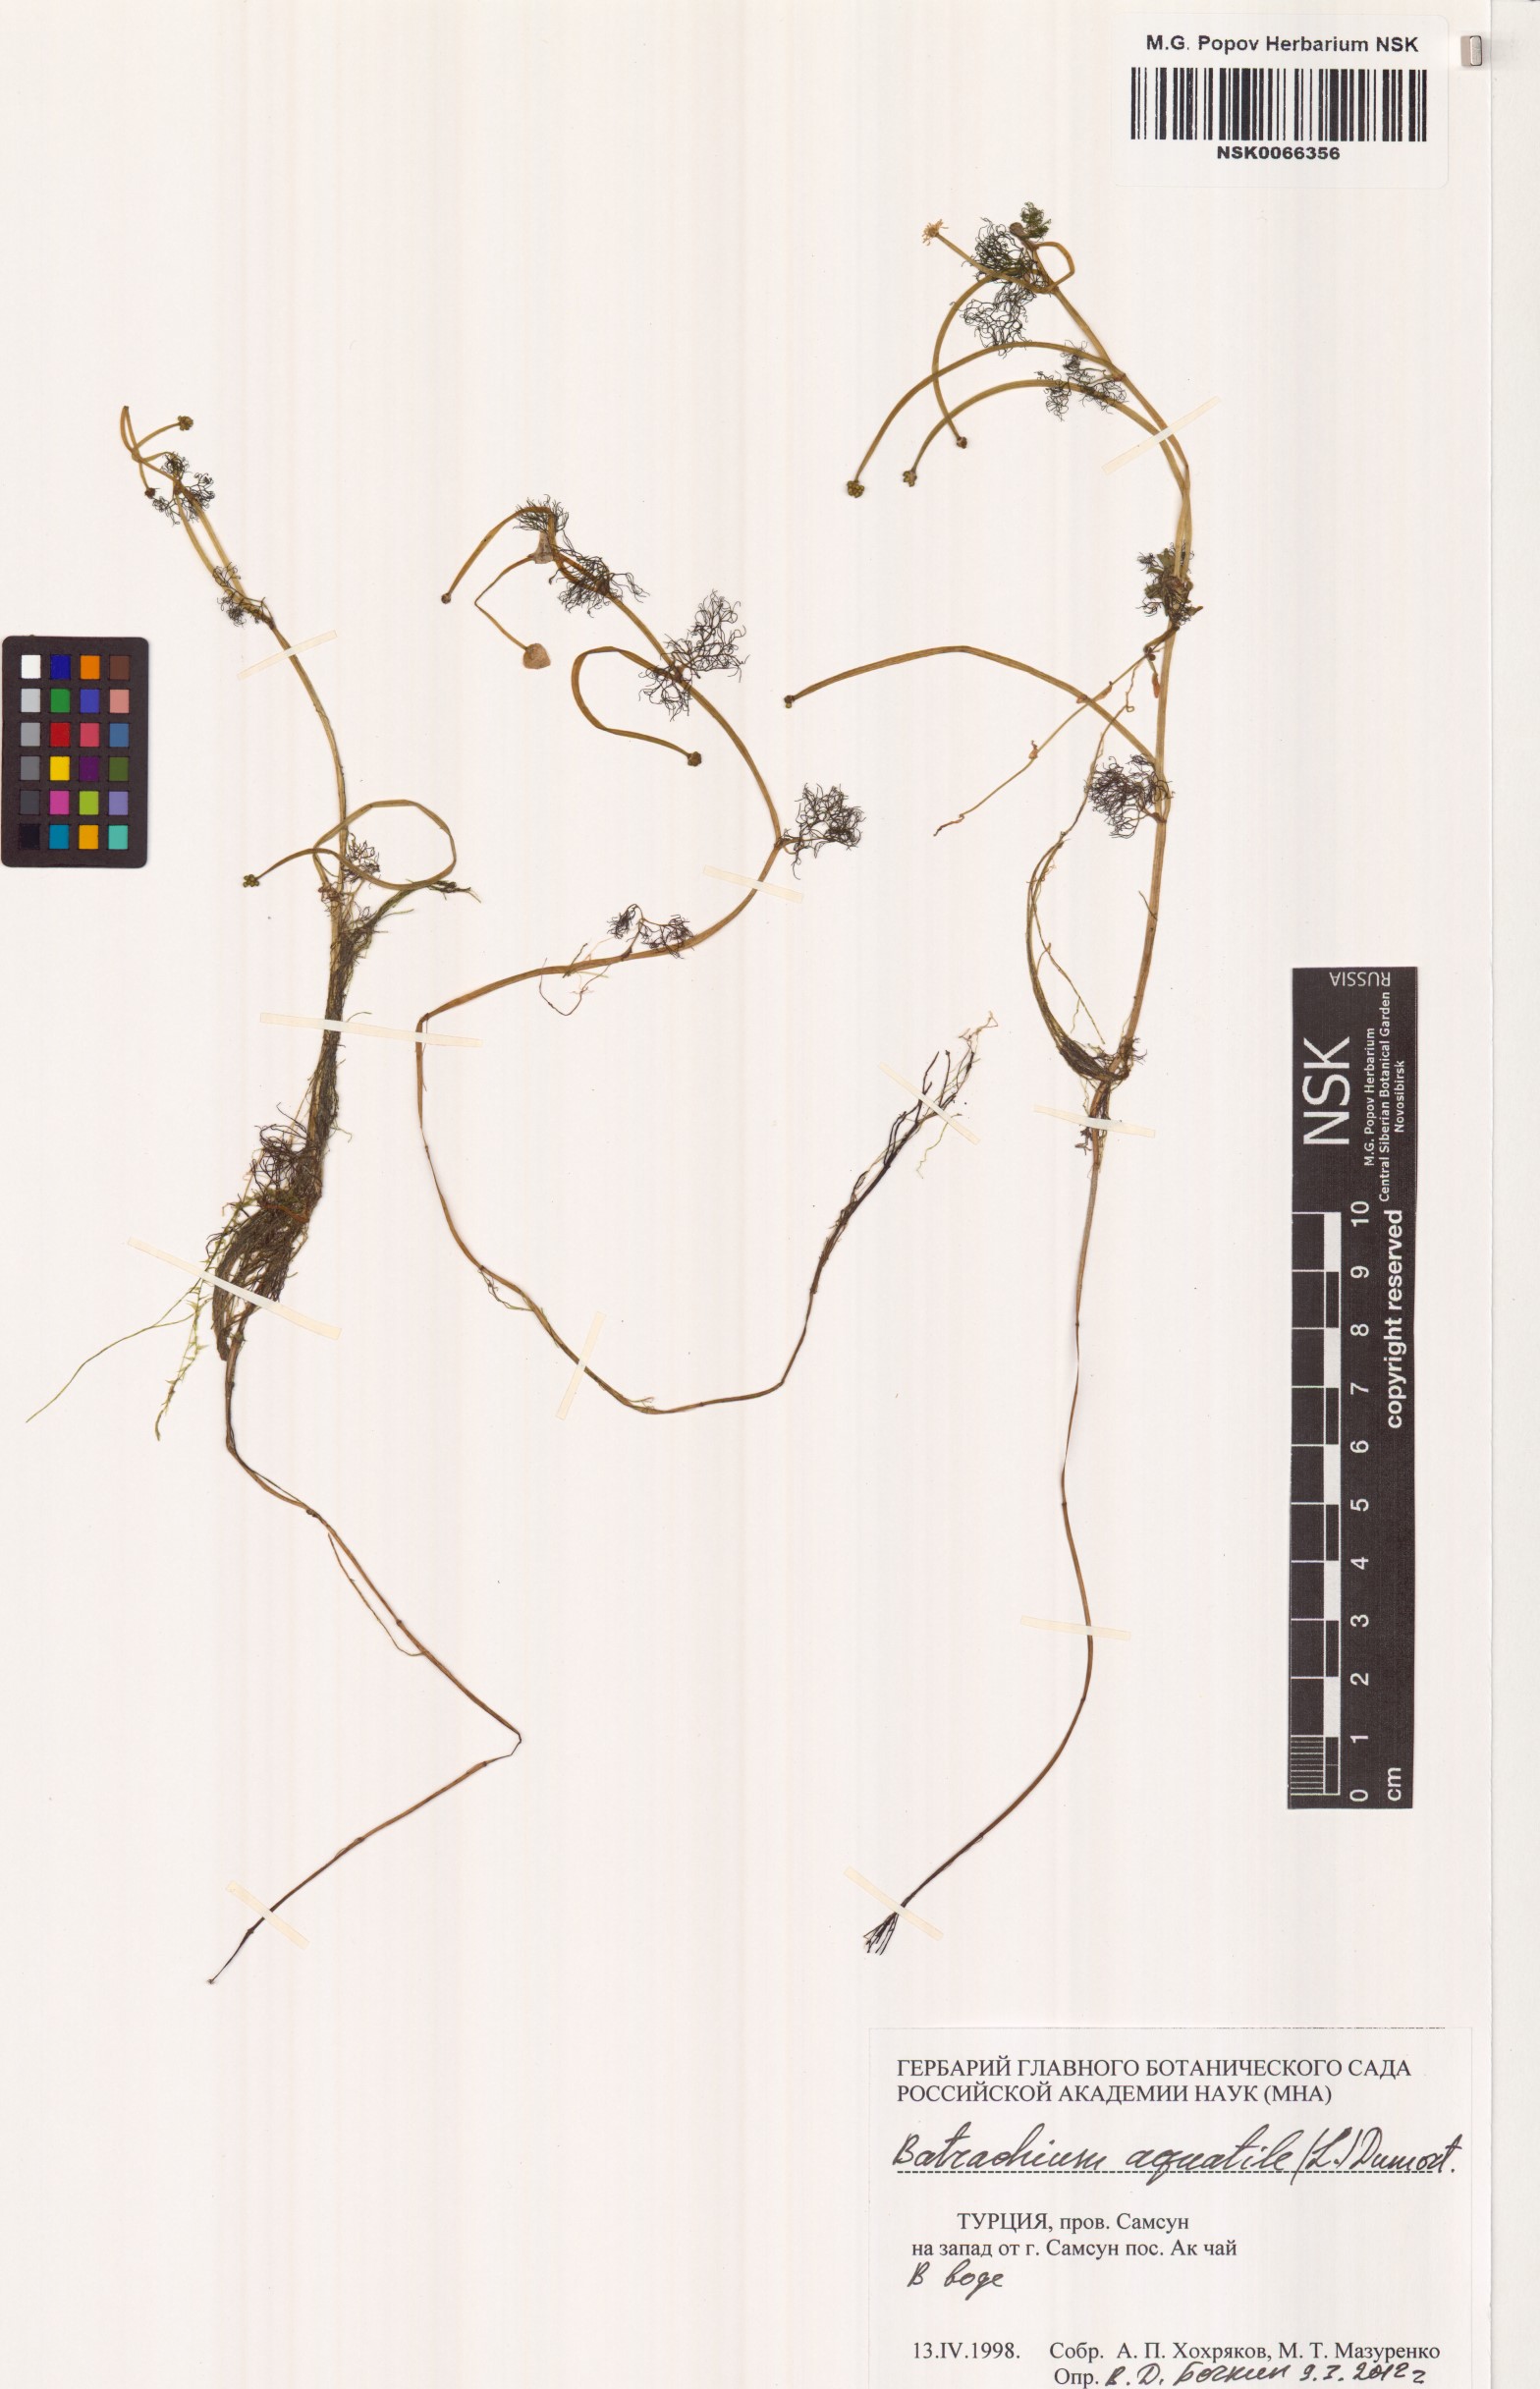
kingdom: Plantae
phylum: Tracheophyta
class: Magnoliopsida
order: Ranunculales
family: Ranunculaceae
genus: Ranunculus
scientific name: Ranunculus aquatilis
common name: Common water-crowfoot
